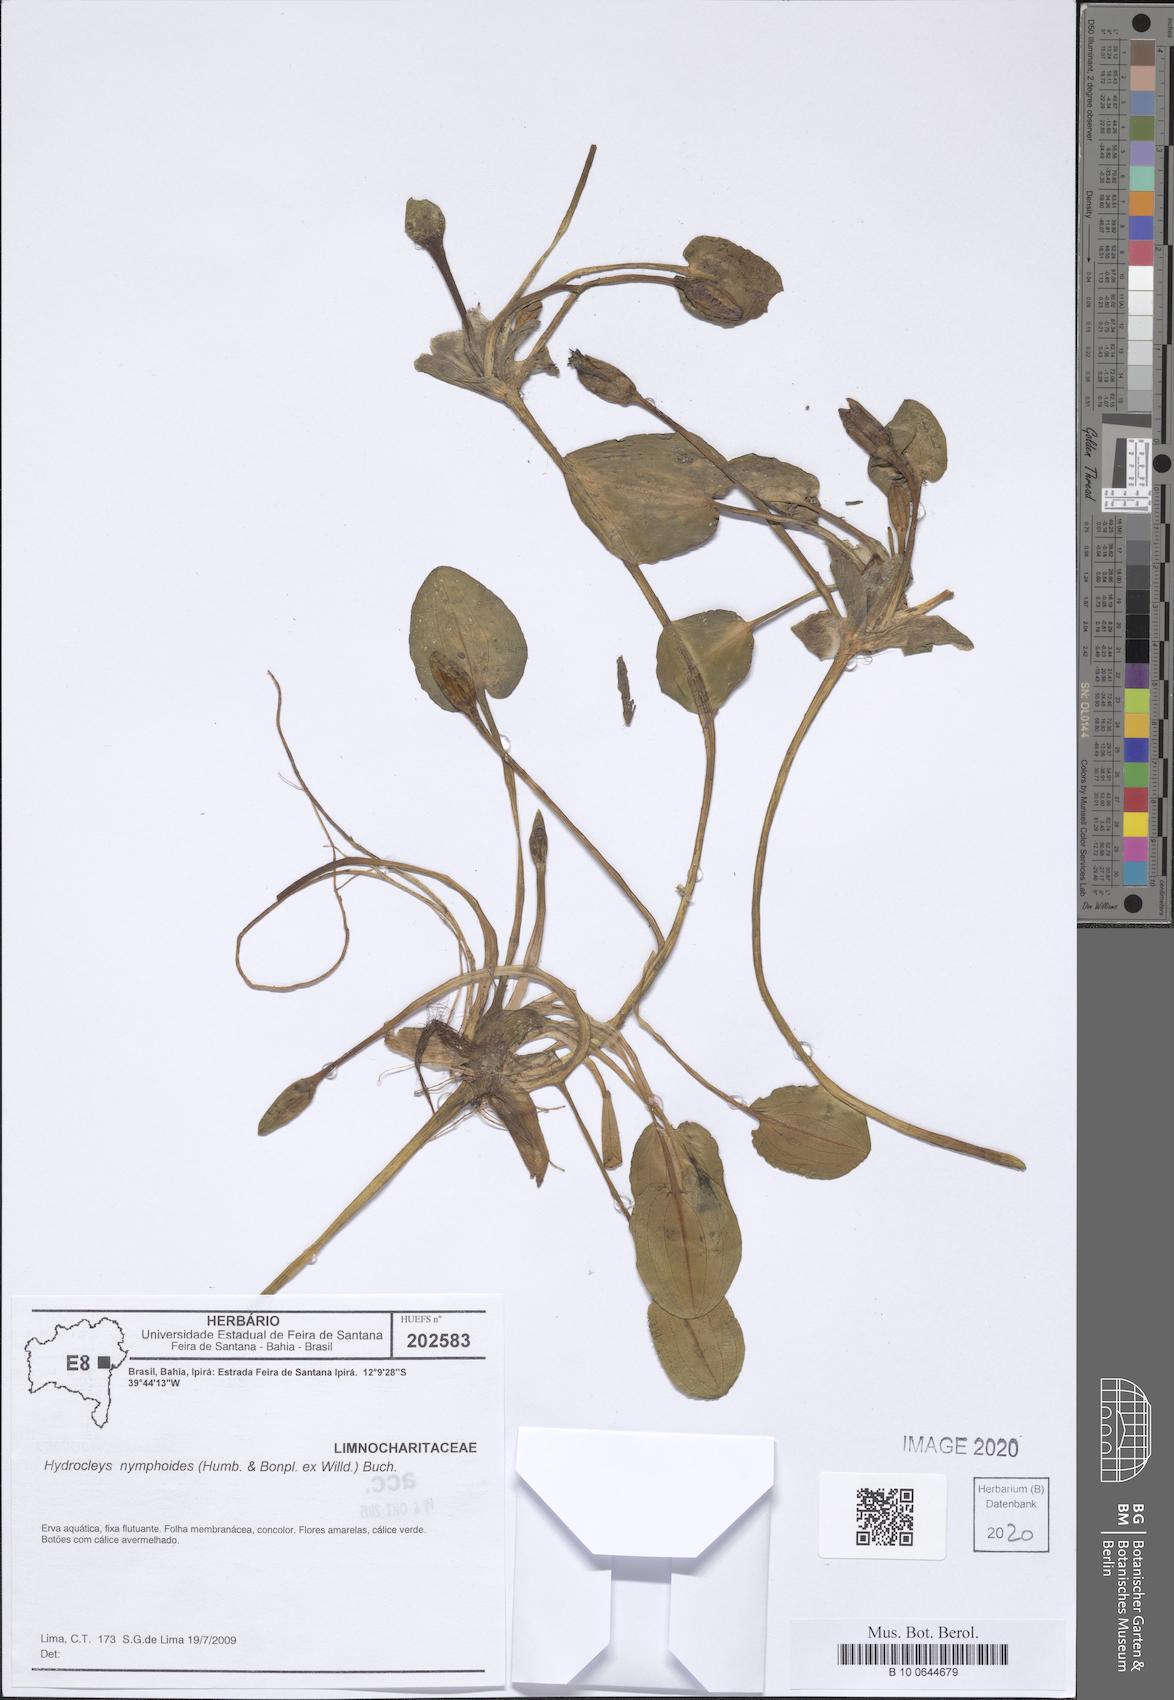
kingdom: Plantae
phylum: Tracheophyta
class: Liliopsida
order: Alismatales
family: Alismataceae
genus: Hydrocleys
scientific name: Hydrocleys nymphoides
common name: Water-poppy
